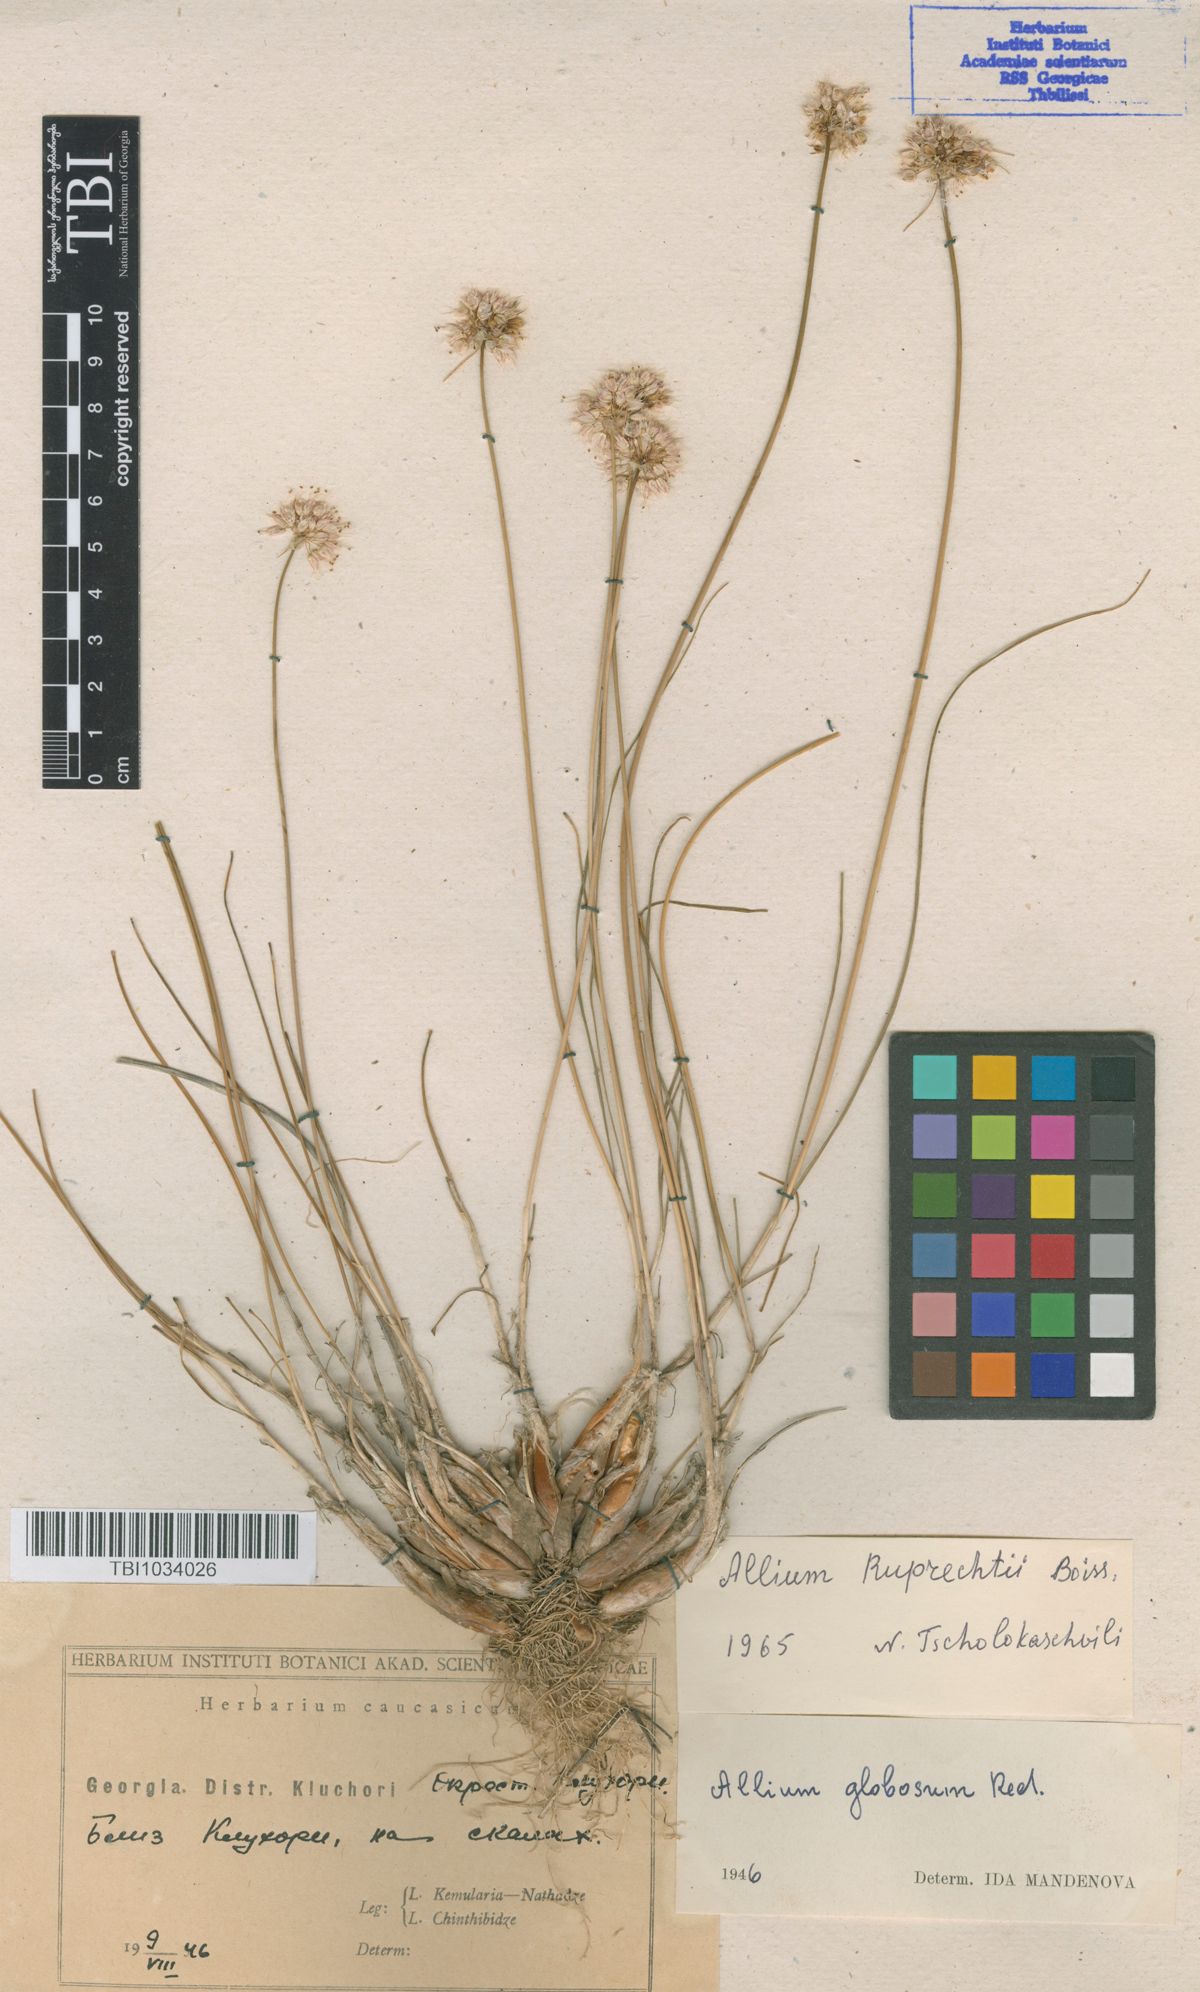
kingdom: Plantae
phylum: Tracheophyta
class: Liliopsida
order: Asparagales
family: Amaryllidaceae
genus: Allium
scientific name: Allium saxatile
